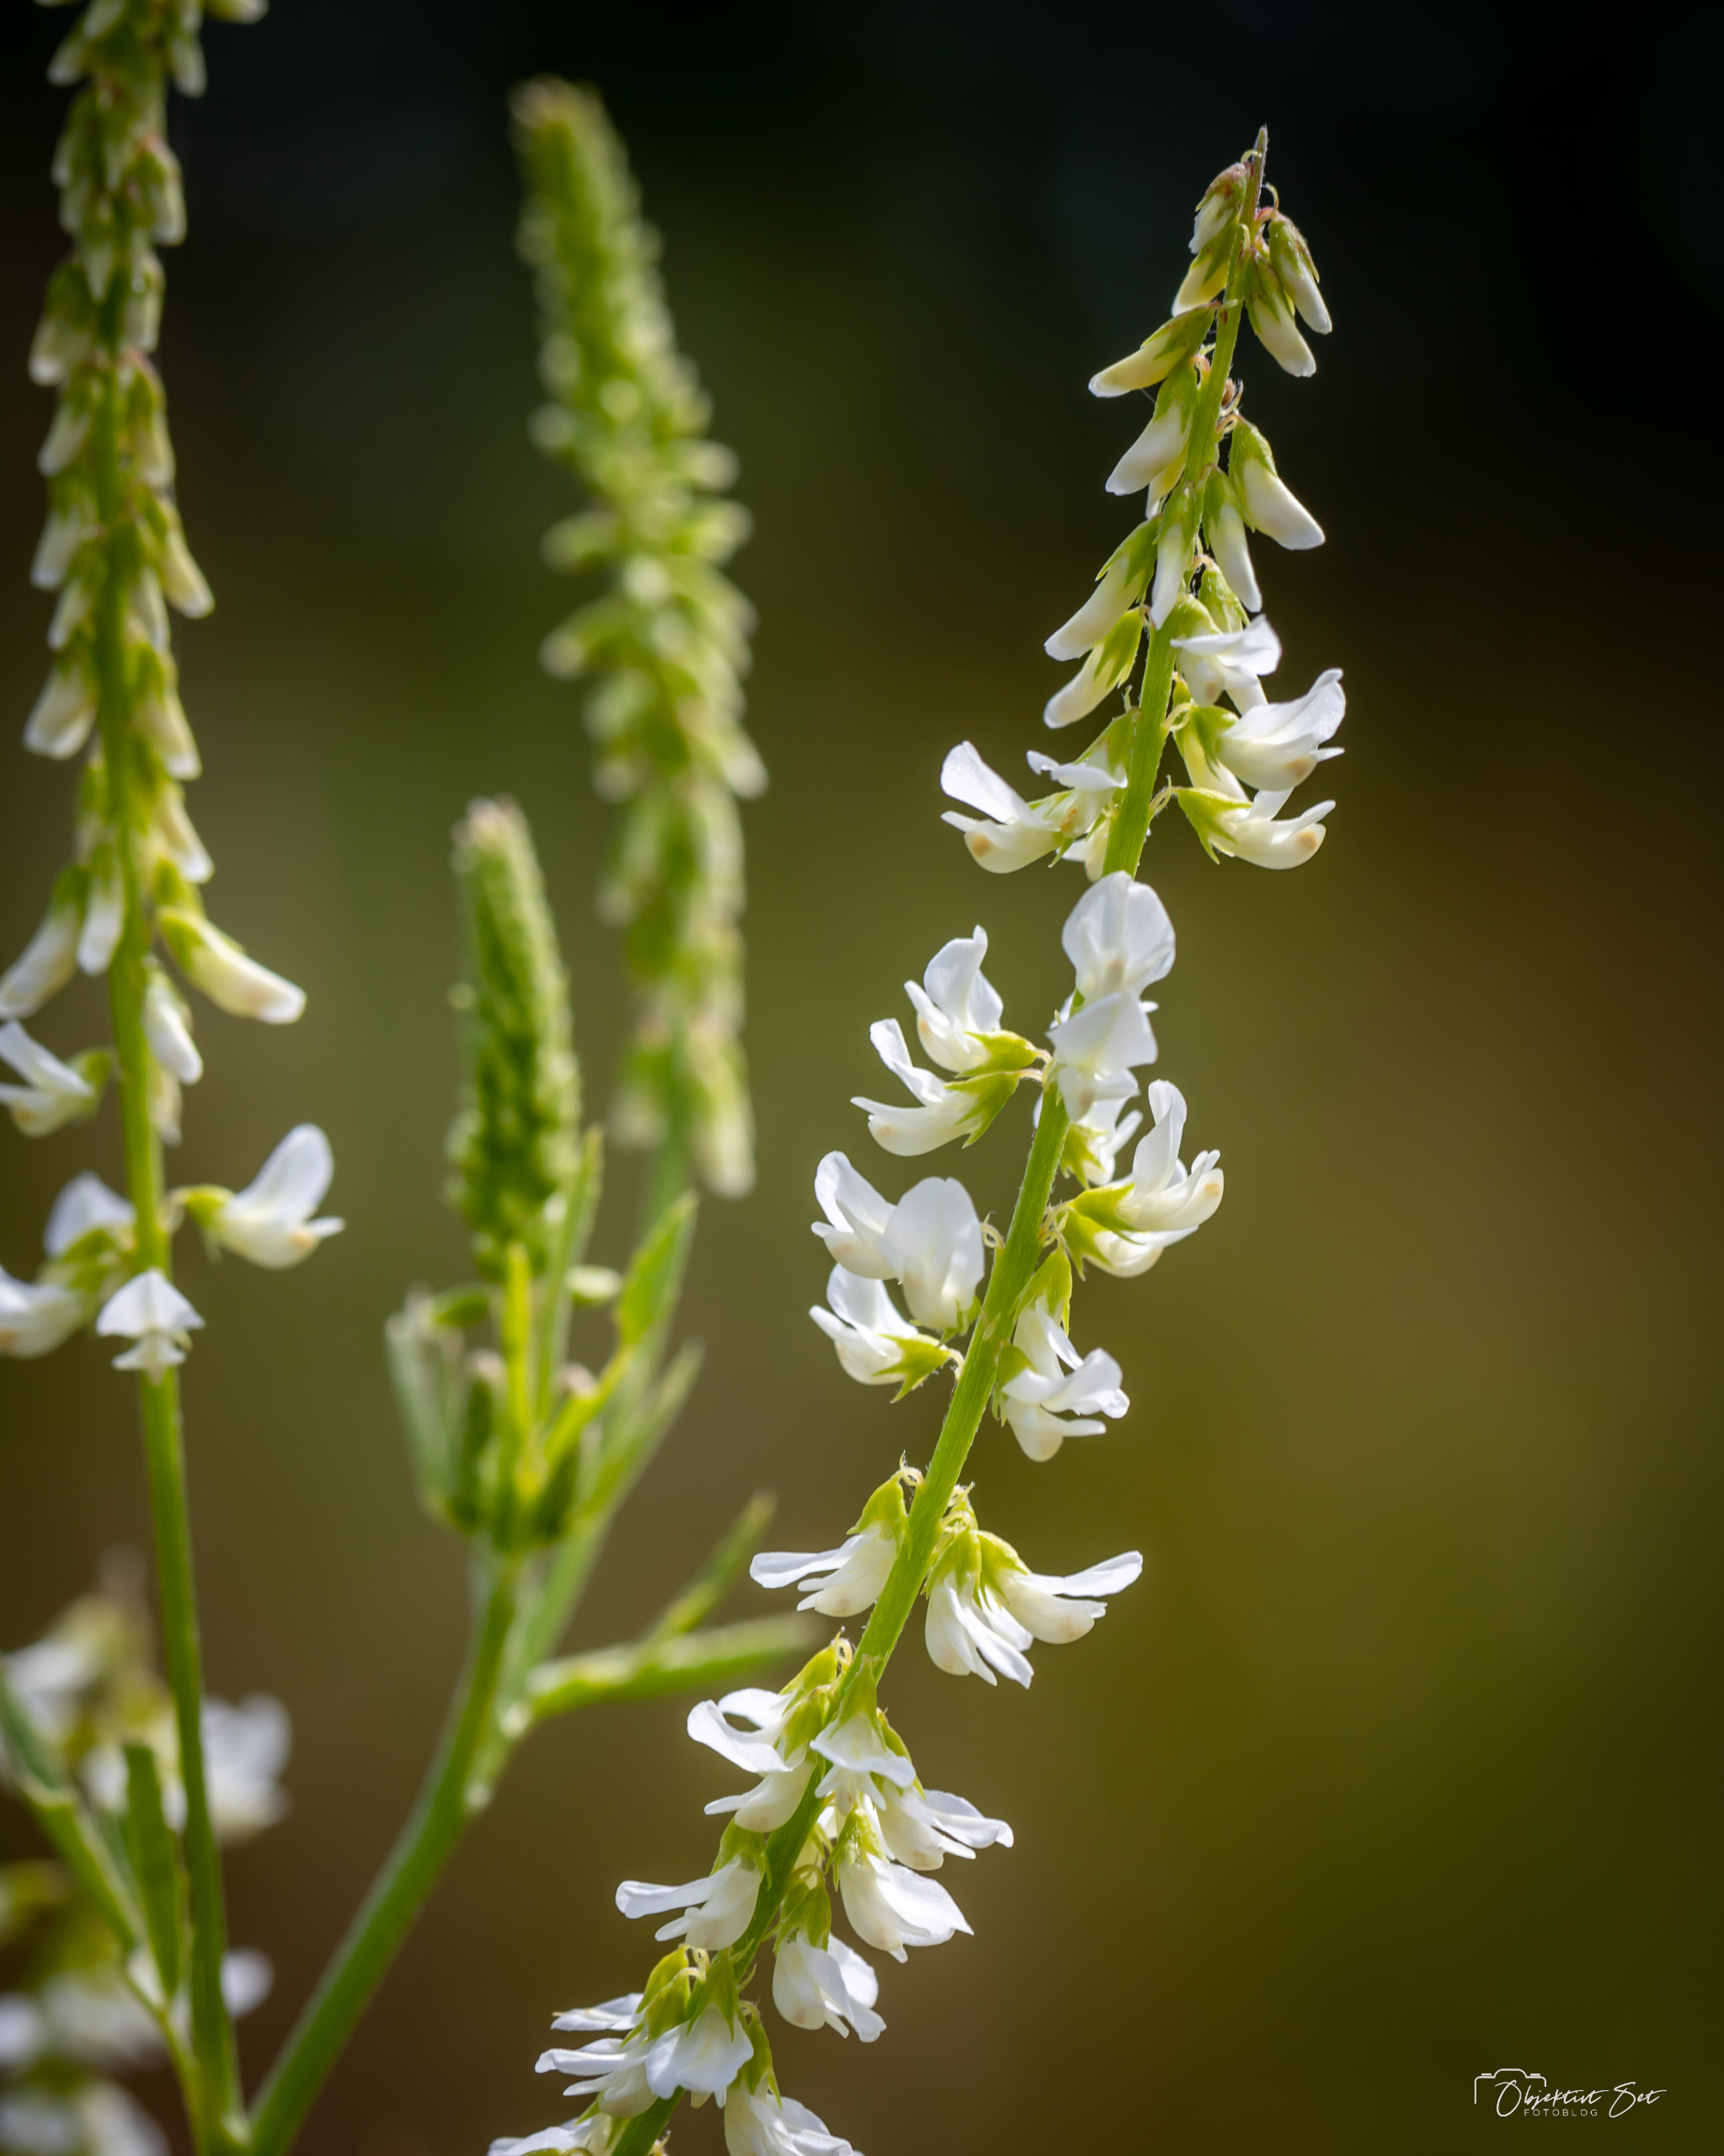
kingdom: Plantae
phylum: Tracheophyta
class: Magnoliopsida
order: Fabales
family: Fabaceae
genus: Melilotus
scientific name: Melilotus albus
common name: Hvid stenkløver
